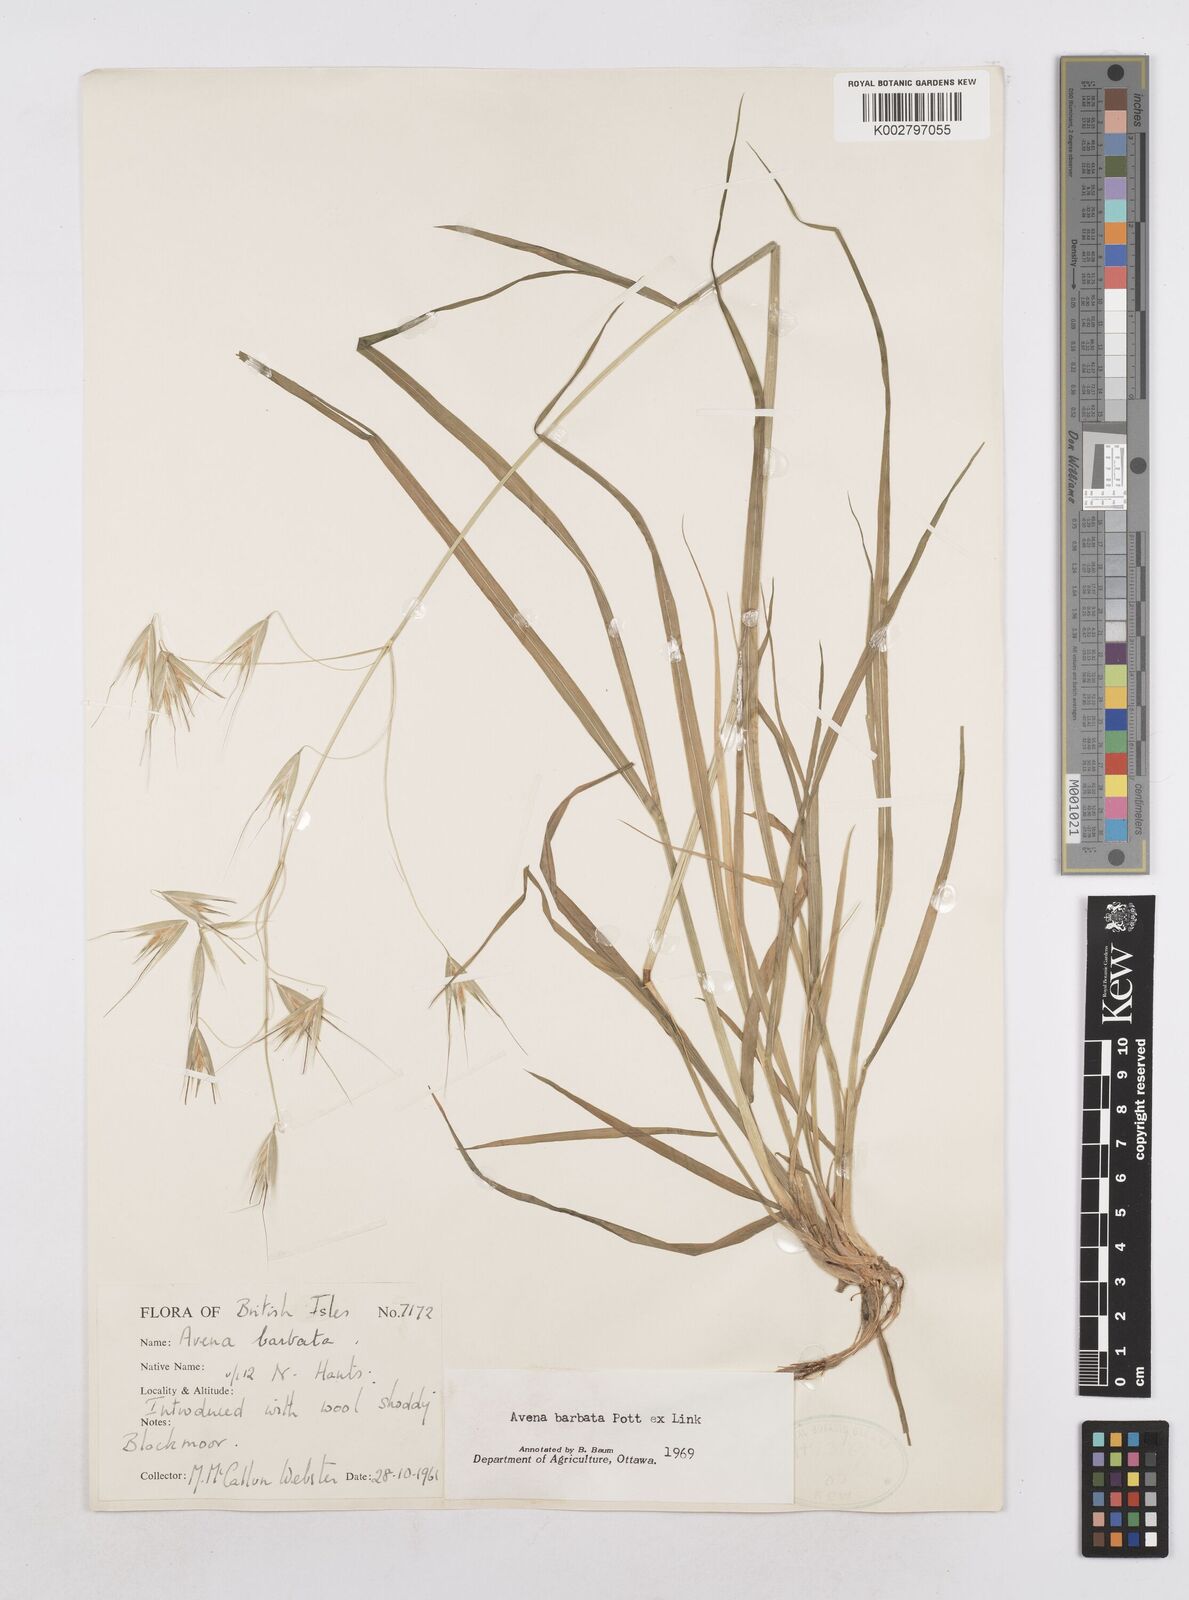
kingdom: Plantae
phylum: Tracheophyta
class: Liliopsida
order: Poales
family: Poaceae
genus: Avena
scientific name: Avena
